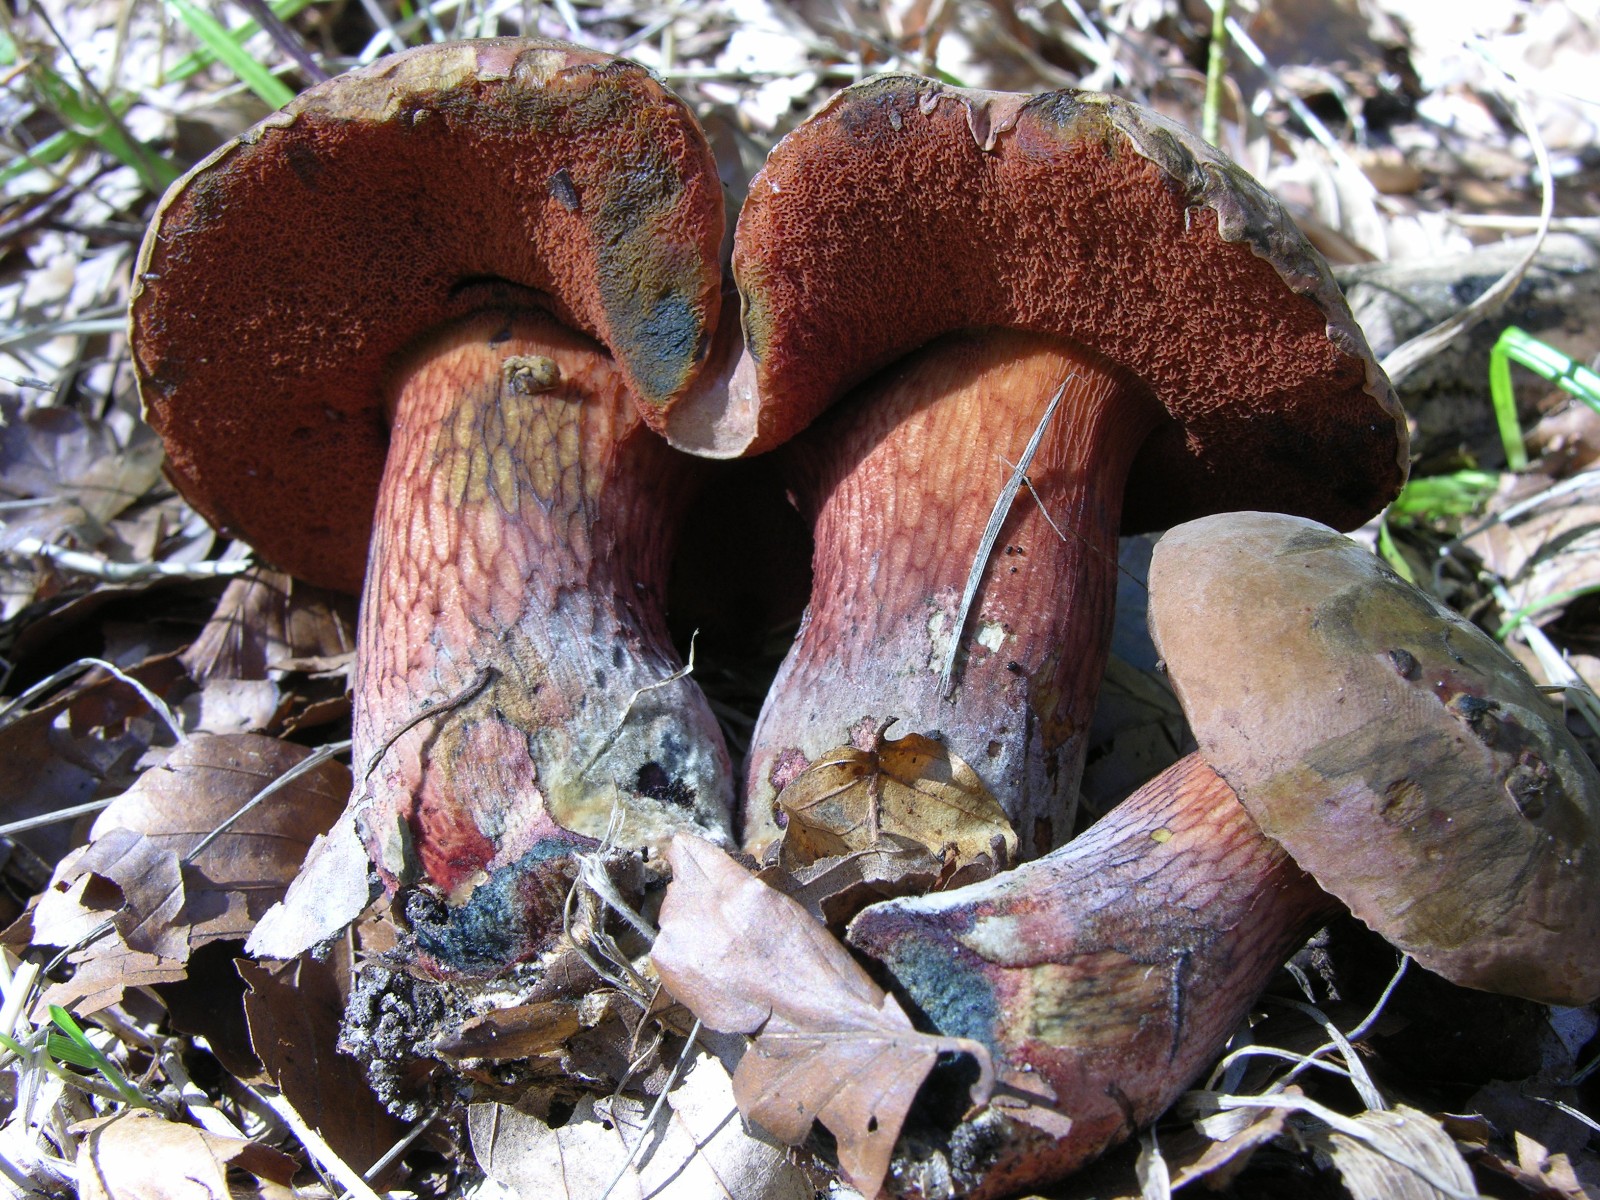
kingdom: Fungi
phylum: Basidiomycota
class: Agaricomycetes
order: Boletales
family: Boletaceae
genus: Suillellus
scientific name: Suillellus luridus
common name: netstokket indigorørhat
